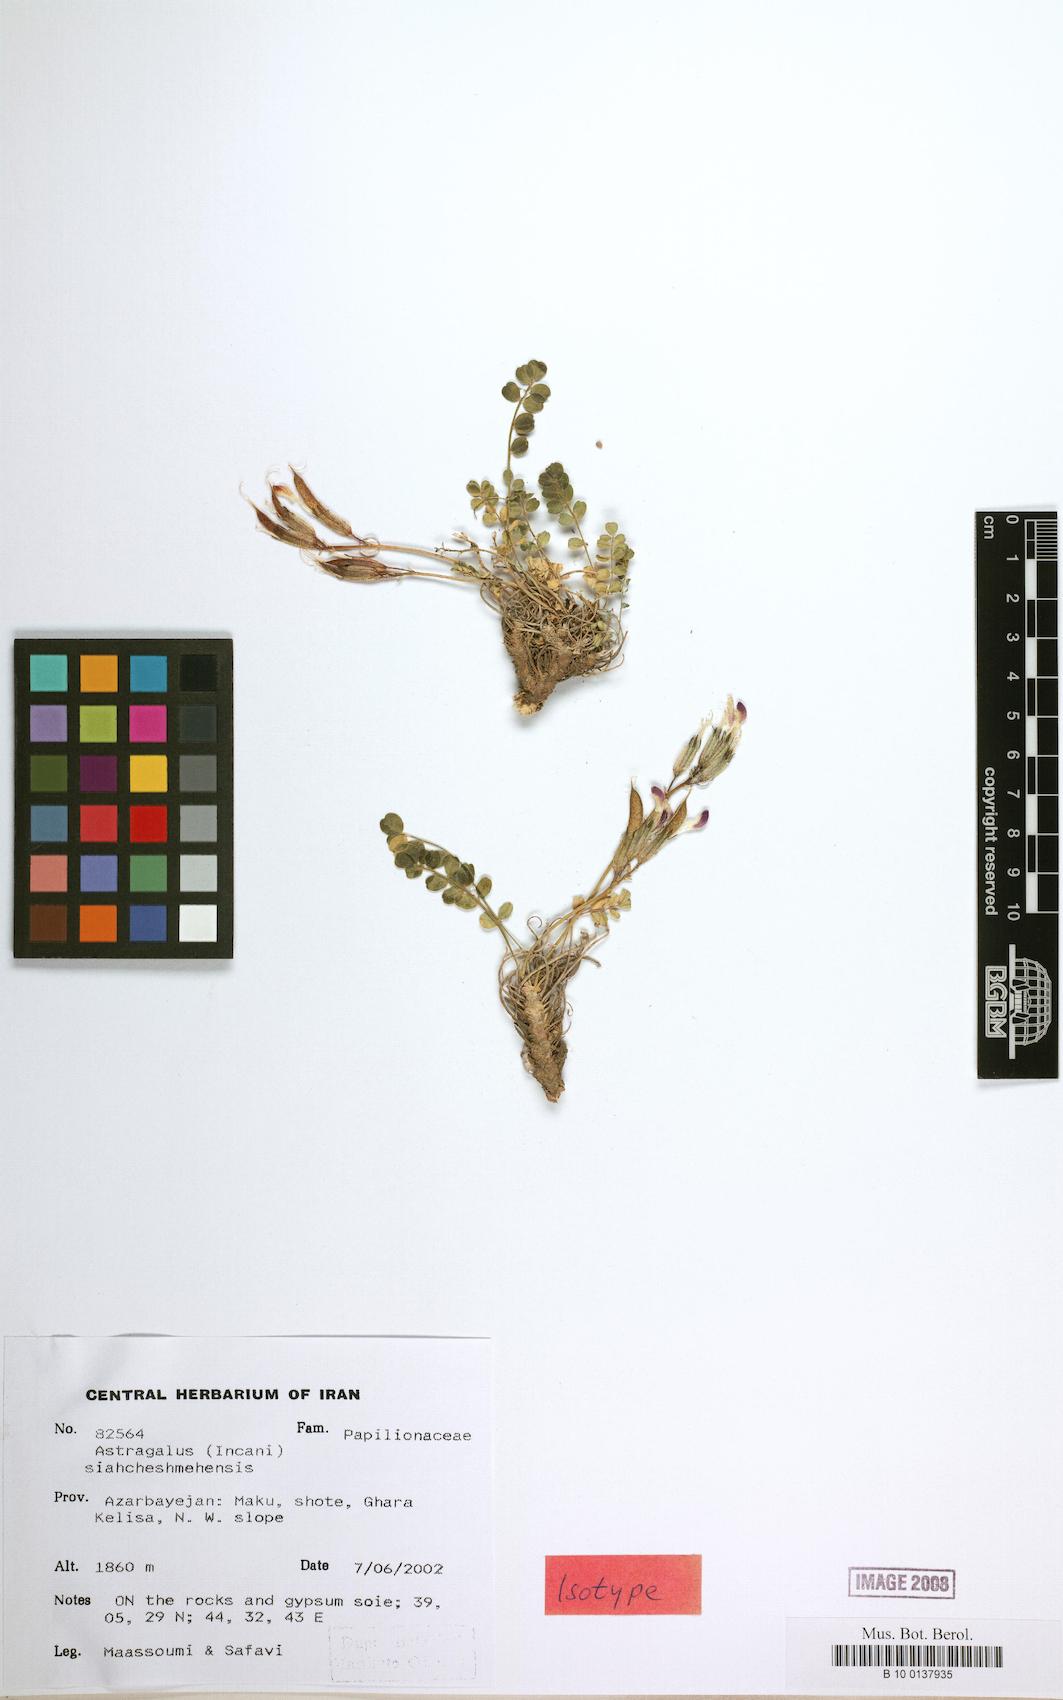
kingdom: Plantae
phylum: Tracheophyta
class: Magnoliopsida
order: Fabales
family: Fabaceae
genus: Astragalus
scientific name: Astragalus siahcheshmehensis
